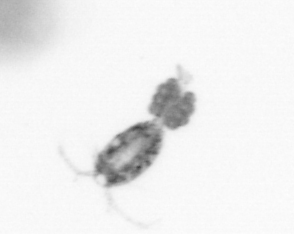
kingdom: Animalia
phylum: Arthropoda
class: Copepoda
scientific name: Copepoda
